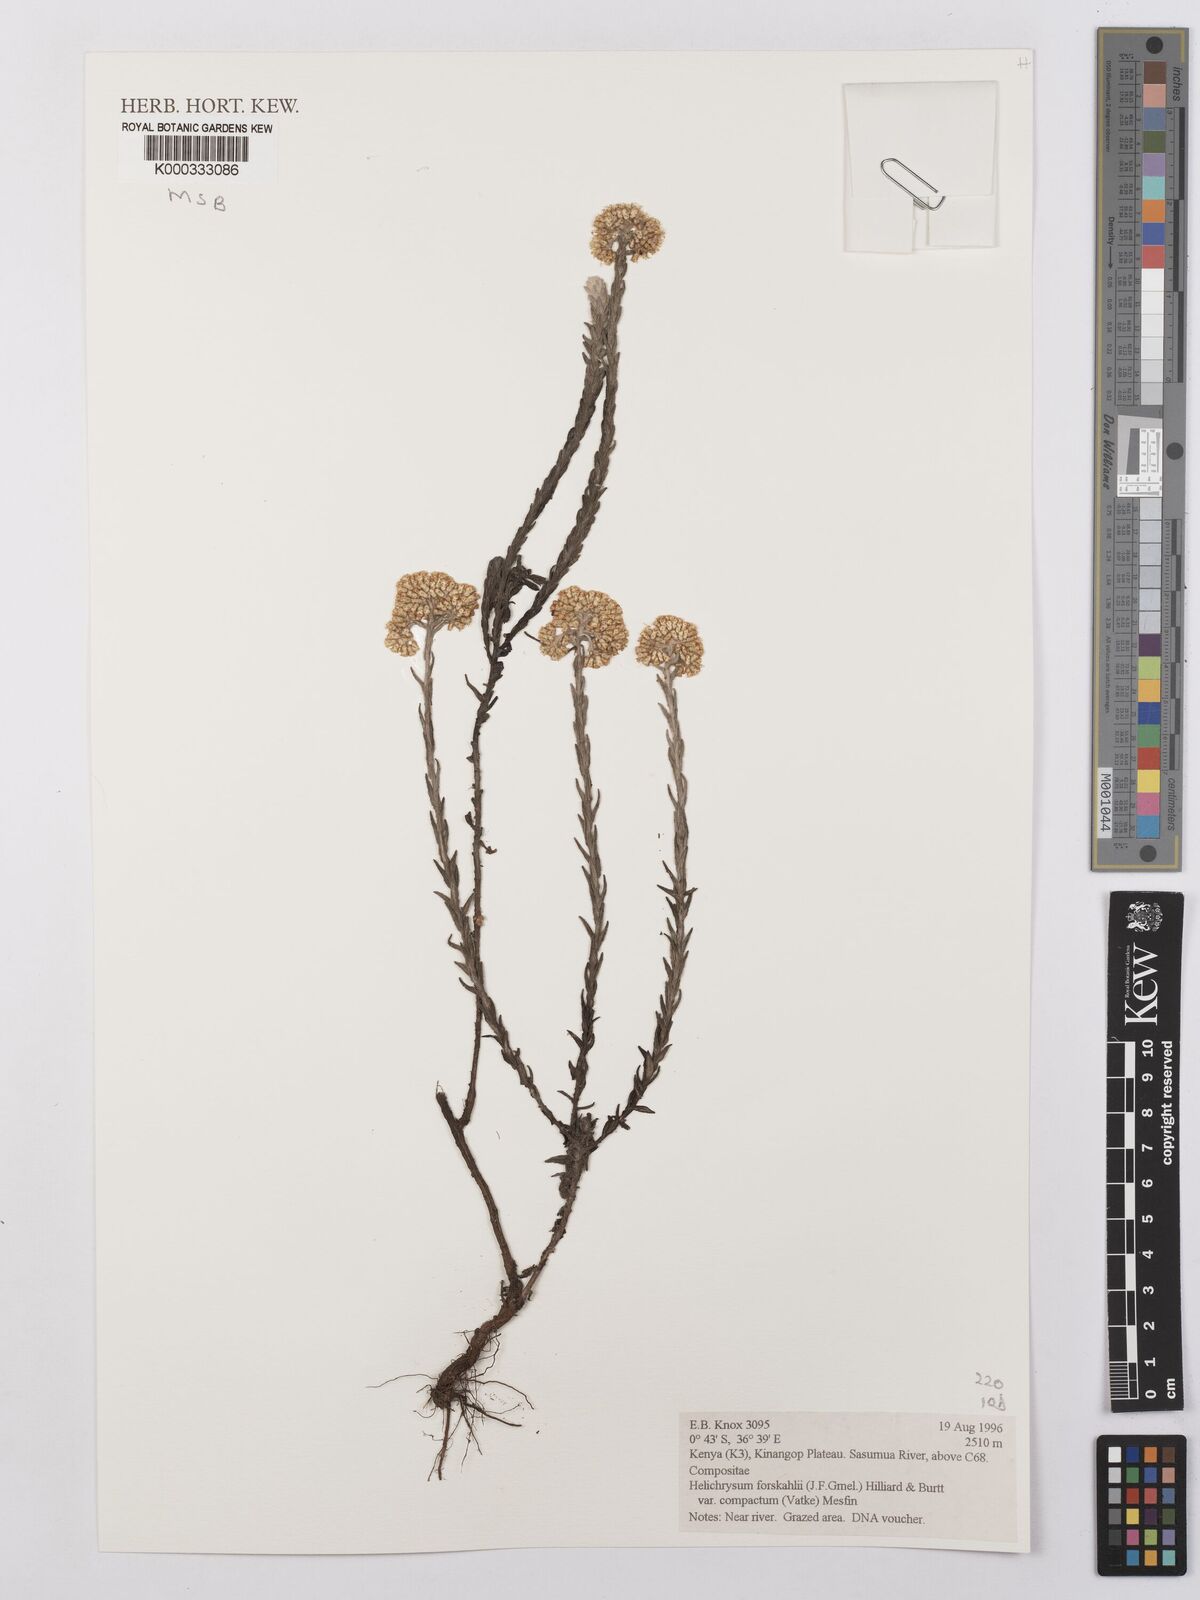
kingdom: Plantae
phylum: Tracheophyta
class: Magnoliopsida
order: Asterales
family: Asteraceae
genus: Helichrysum
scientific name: Helichrysum forskahlii
